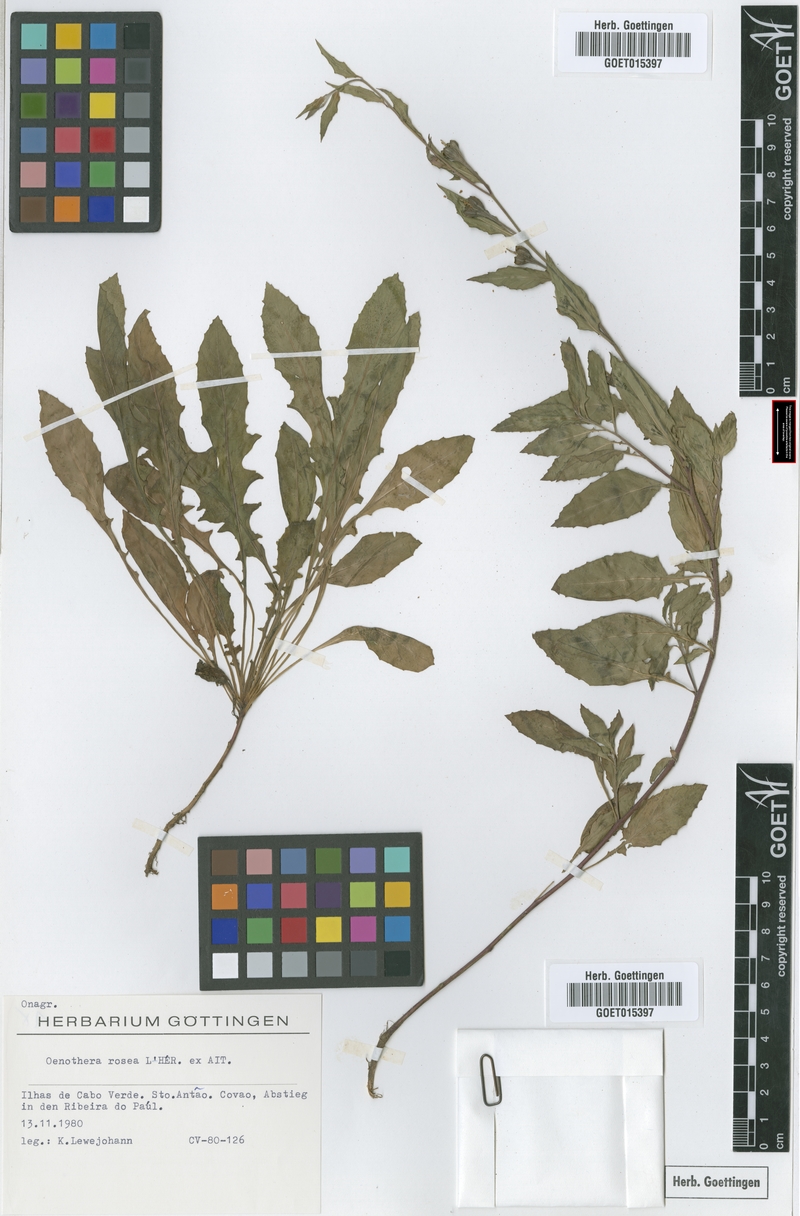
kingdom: Plantae
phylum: Tracheophyta
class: Magnoliopsida
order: Myrtales
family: Onagraceae
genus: Oenothera
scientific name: Oenothera rosea
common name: Rosy evening-primrose
